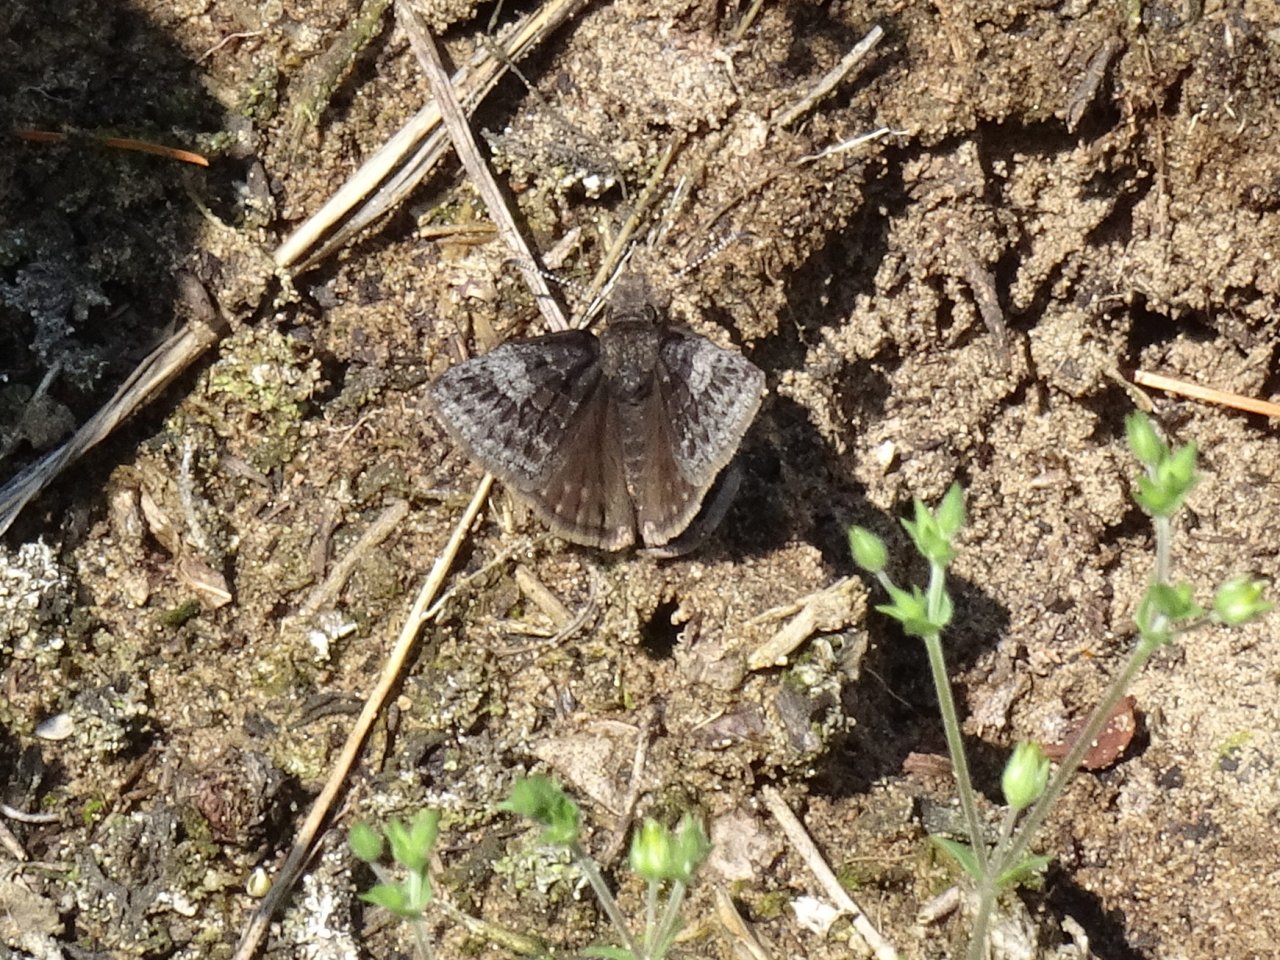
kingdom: Animalia
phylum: Arthropoda
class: Insecta
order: Lepidoptera
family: Hesperiidae
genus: Erynnis
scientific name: Erynnis icelus
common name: Dreamy Duskywing
